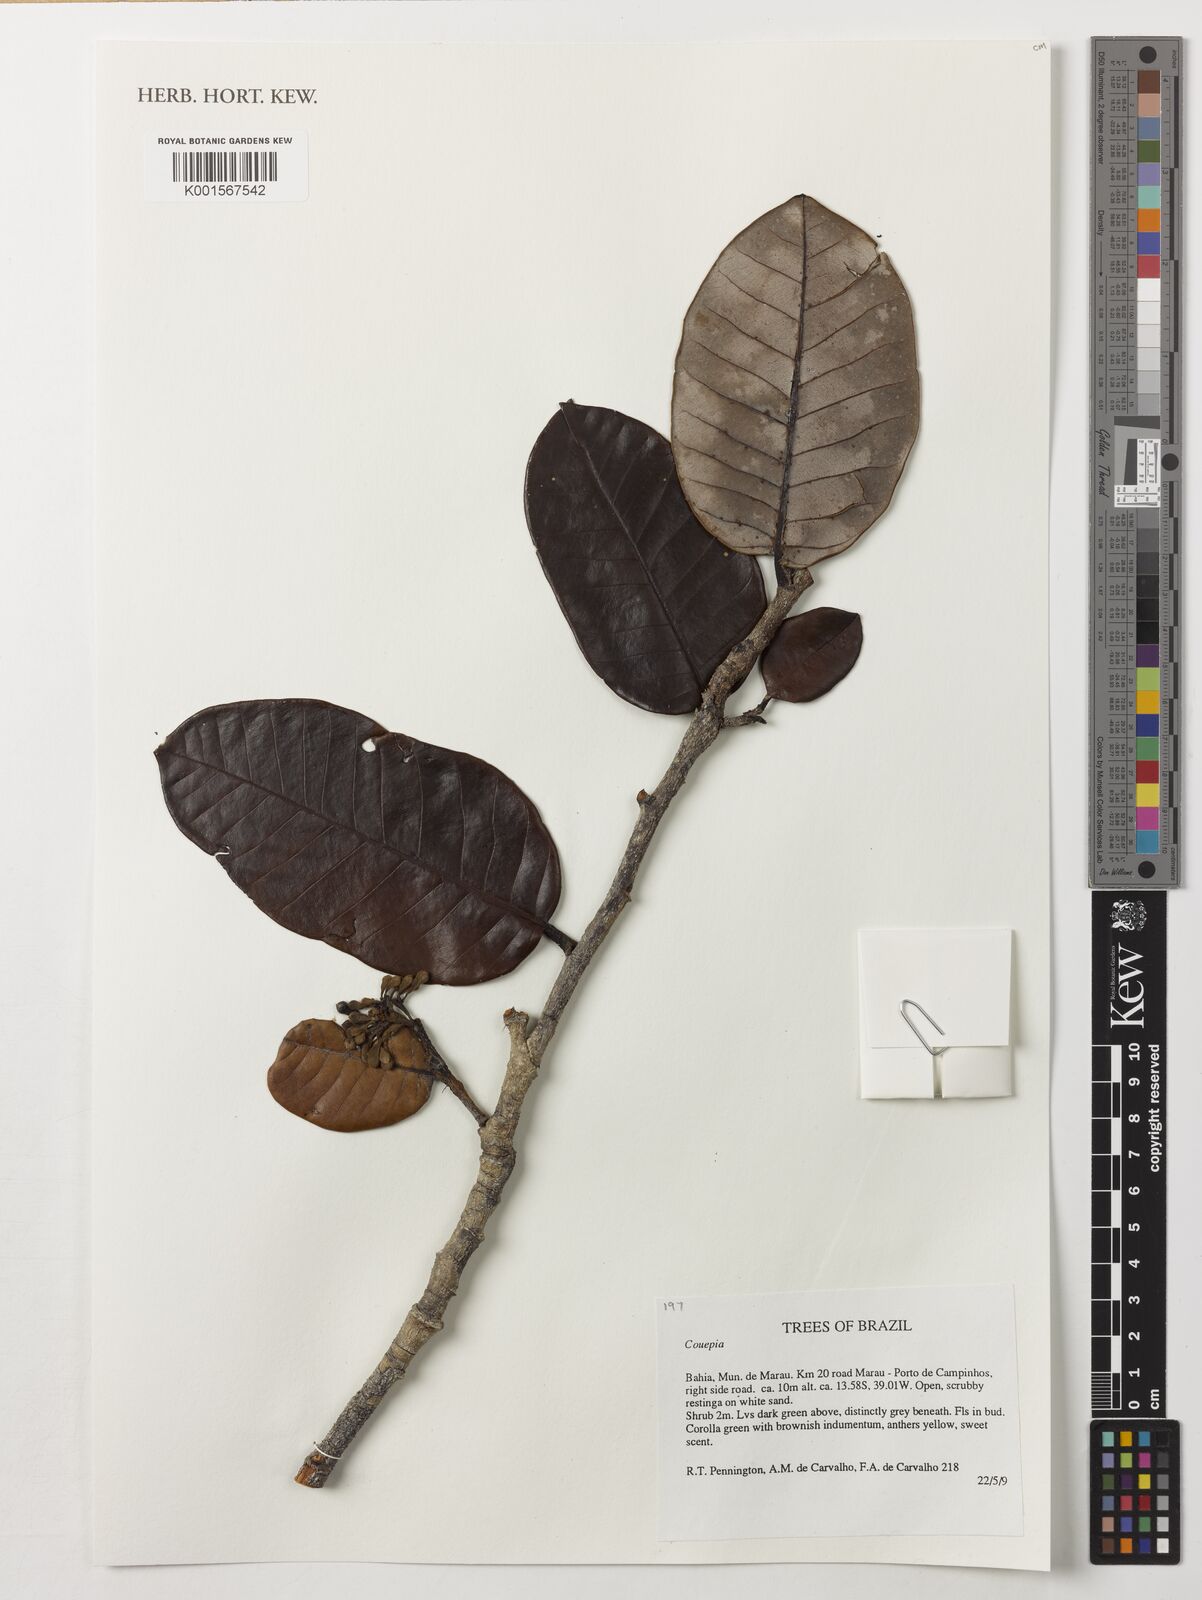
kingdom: Plantae
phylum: Tracheophyta
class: Magnoliopsida
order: Malpighiales
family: Chrysobalanaceae
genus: Couepia
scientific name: Couepia
